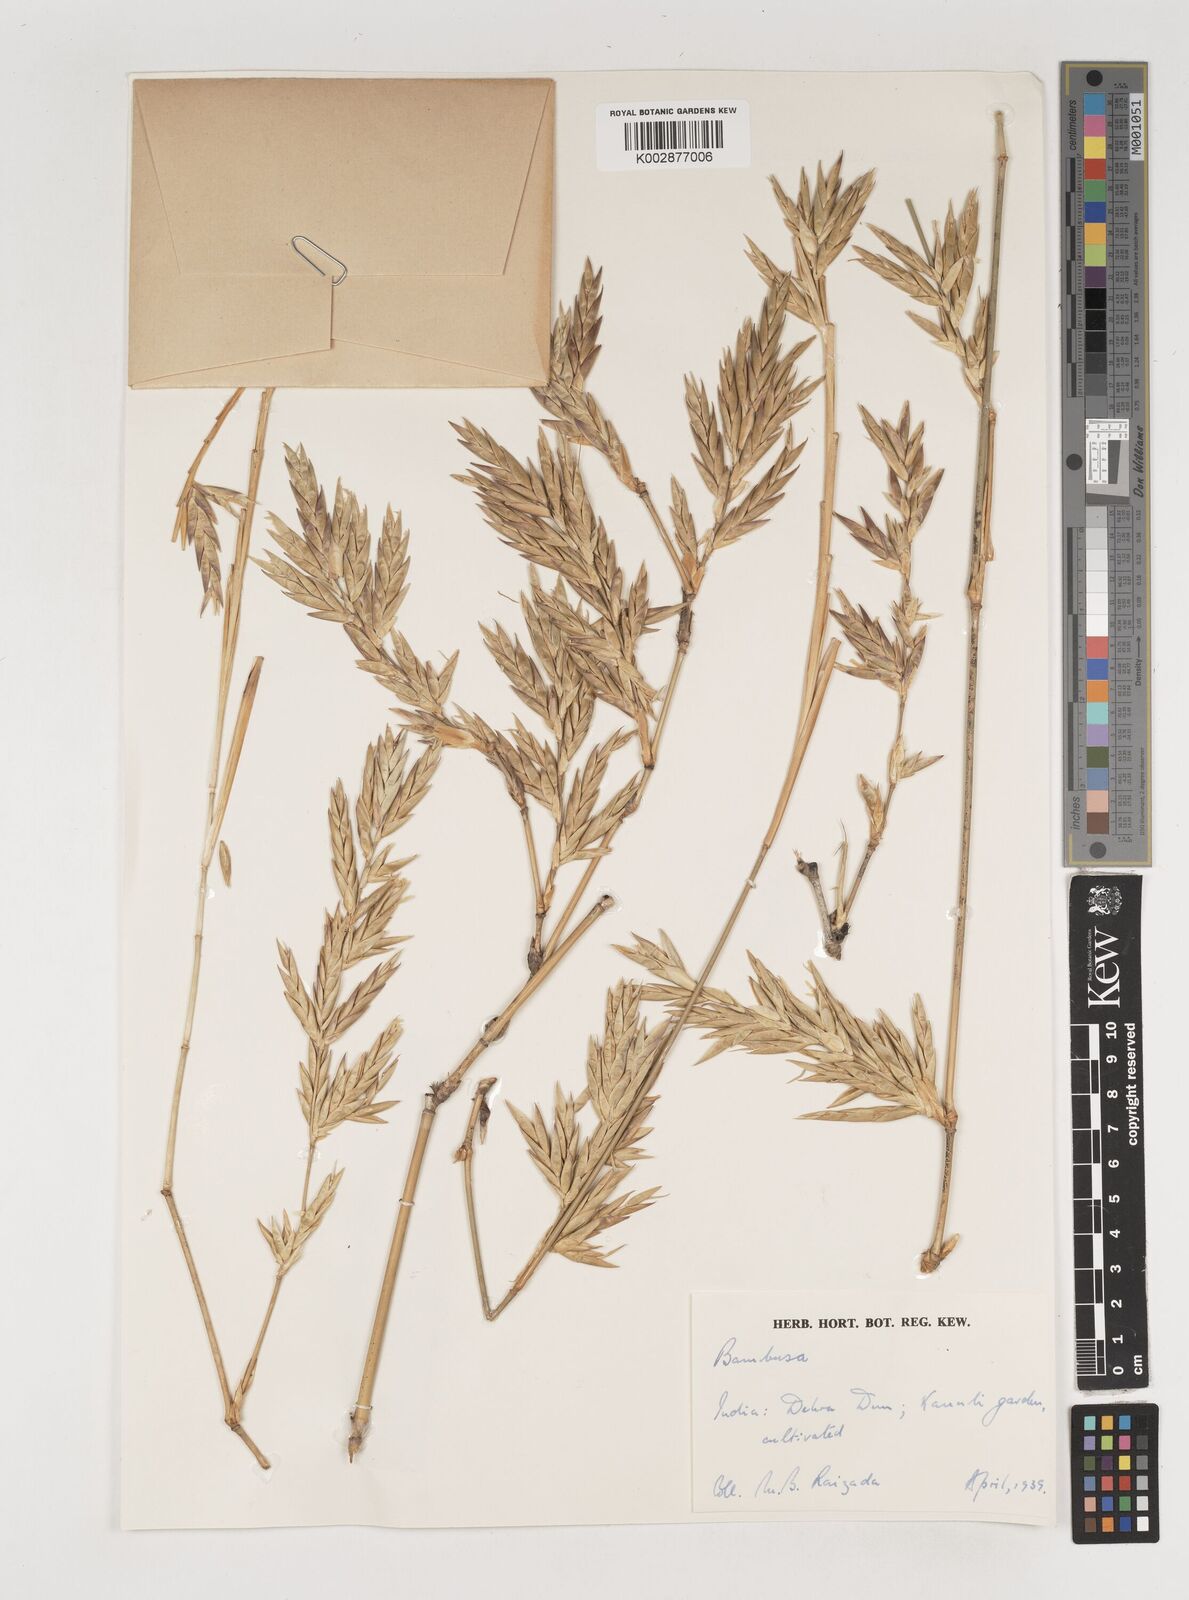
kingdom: Plantae
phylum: Tracheophyta
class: Liliopsida
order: Poales
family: Poaceae
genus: Bambusa
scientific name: Bambusa tulda
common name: Bengal bamboo
